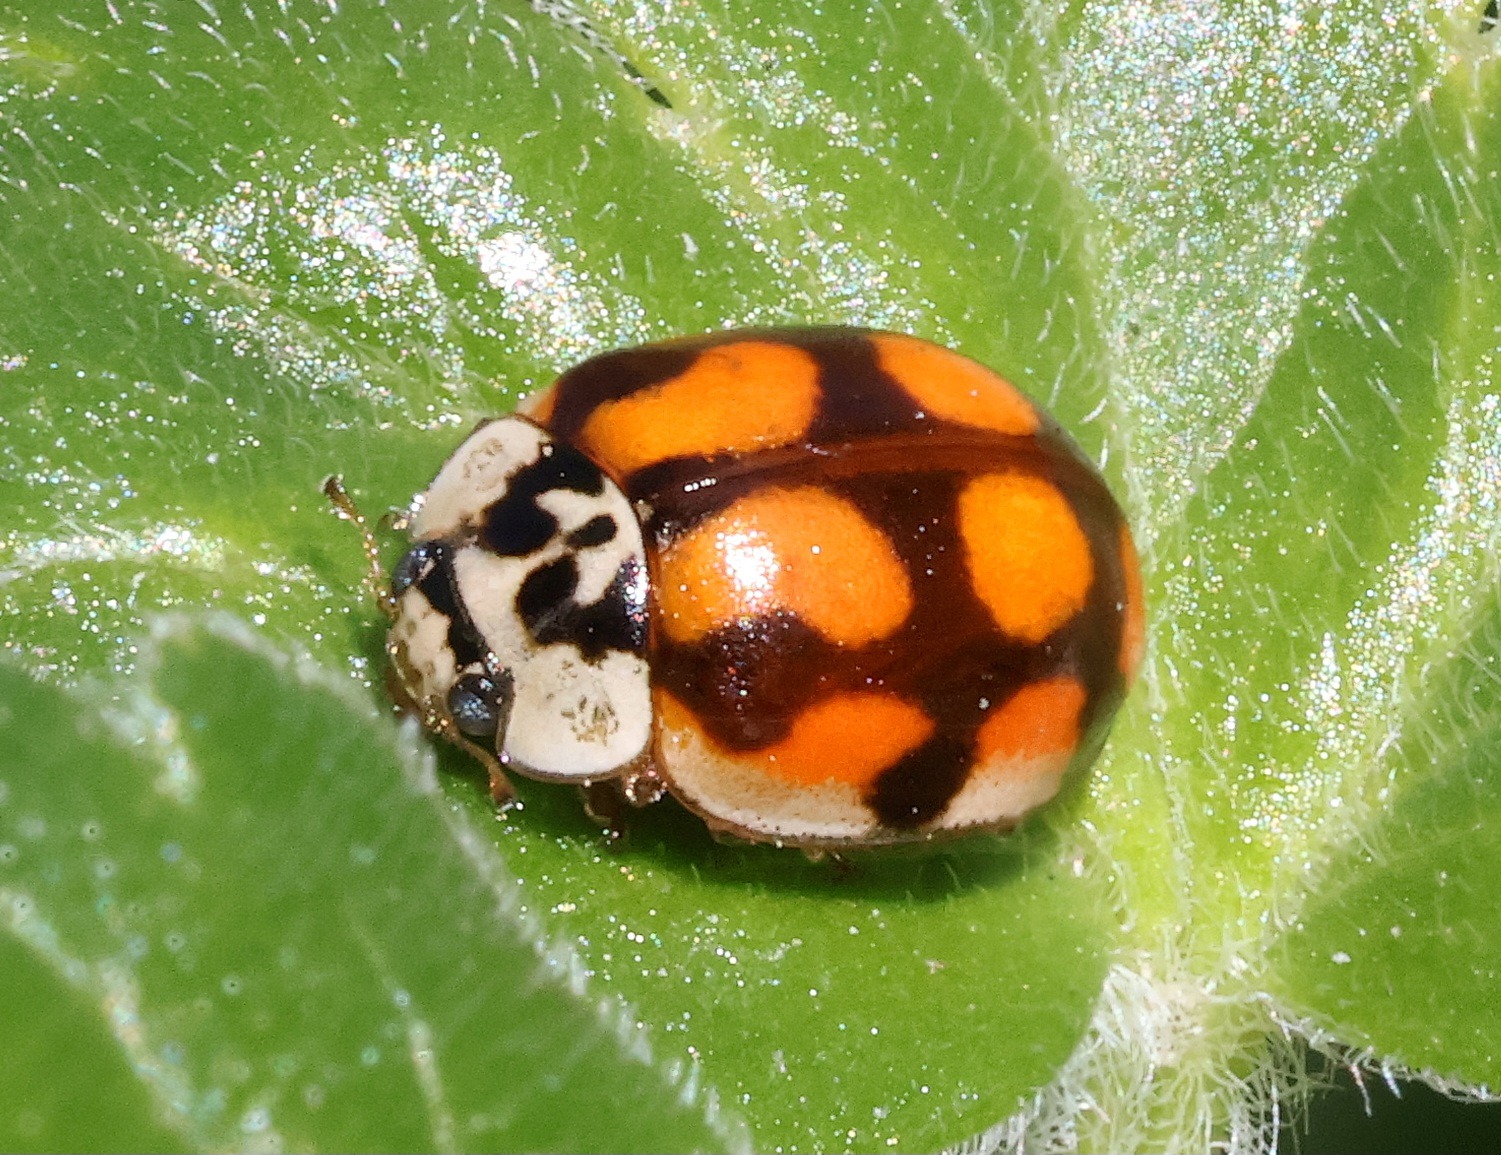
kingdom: Animalia
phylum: Arthropoda
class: Insecta
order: Coleoptera
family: Coccinellidae
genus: Adalia
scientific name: Adalia decempunctata
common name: Tiplettet mariehøne
